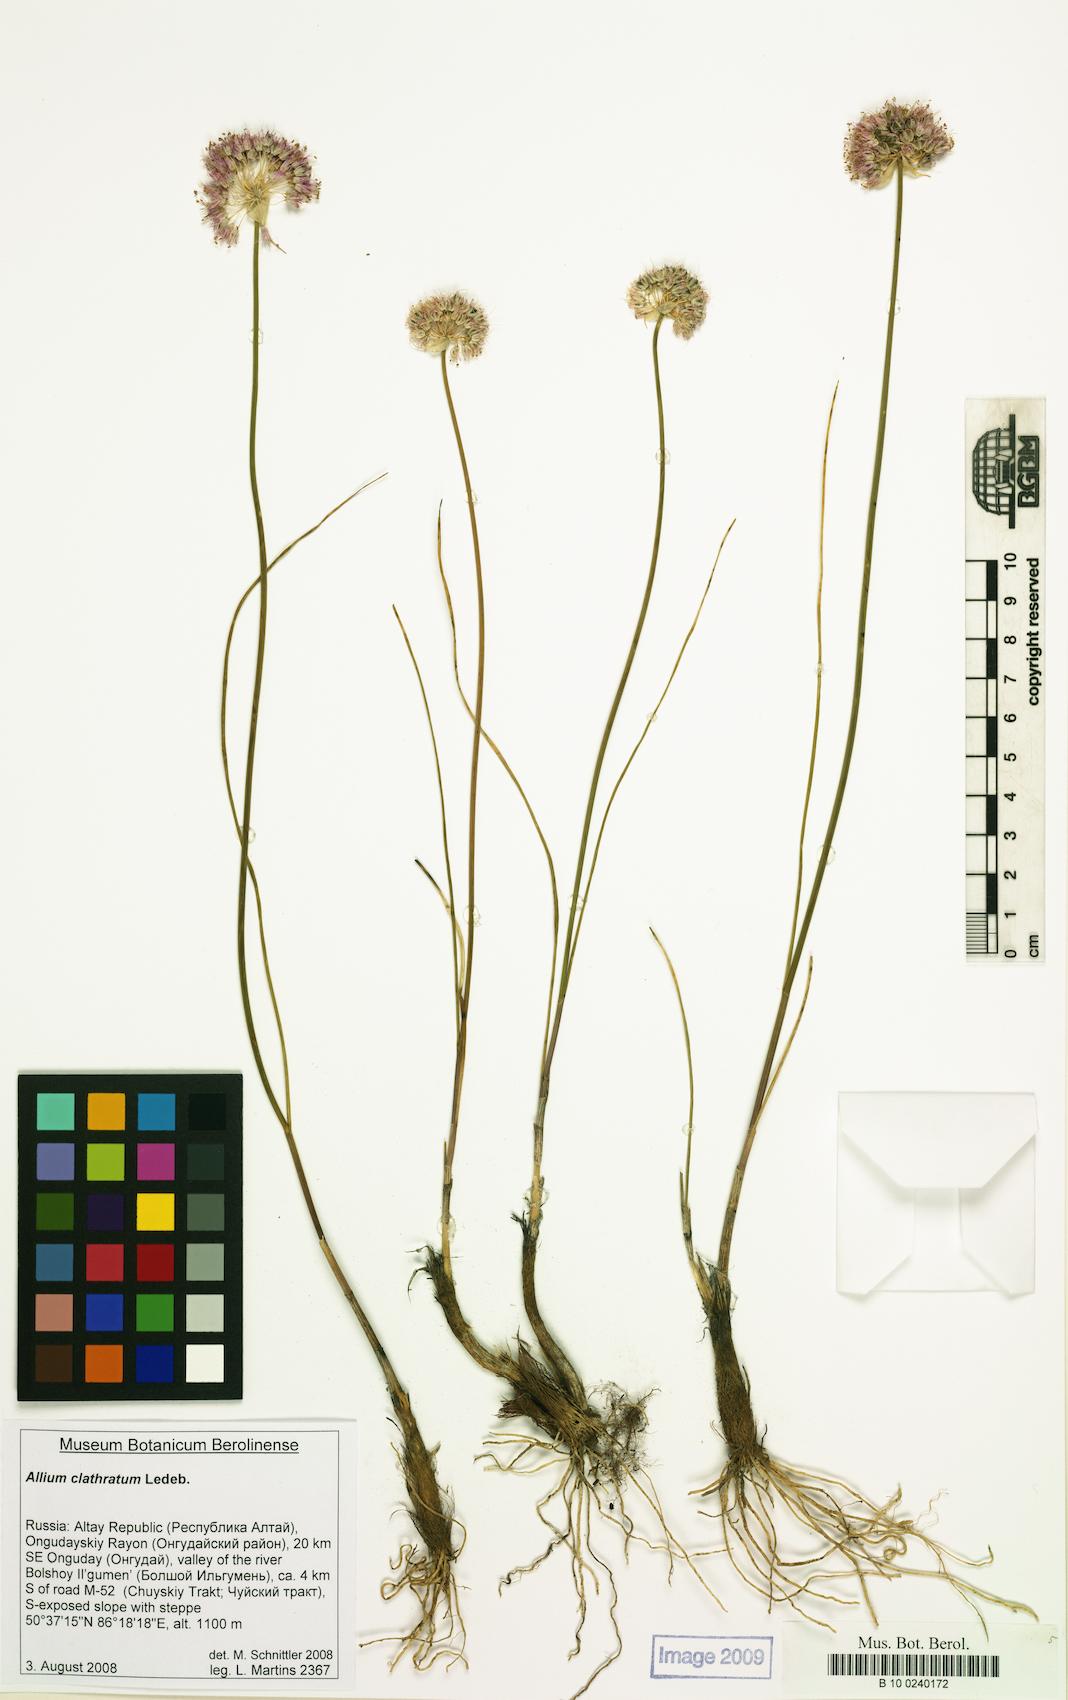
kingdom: Plantae
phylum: Tracheophyta
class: Liliopsida
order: Asparagales
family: Amaryllidaceae
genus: Allium
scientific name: Allium clathratum
